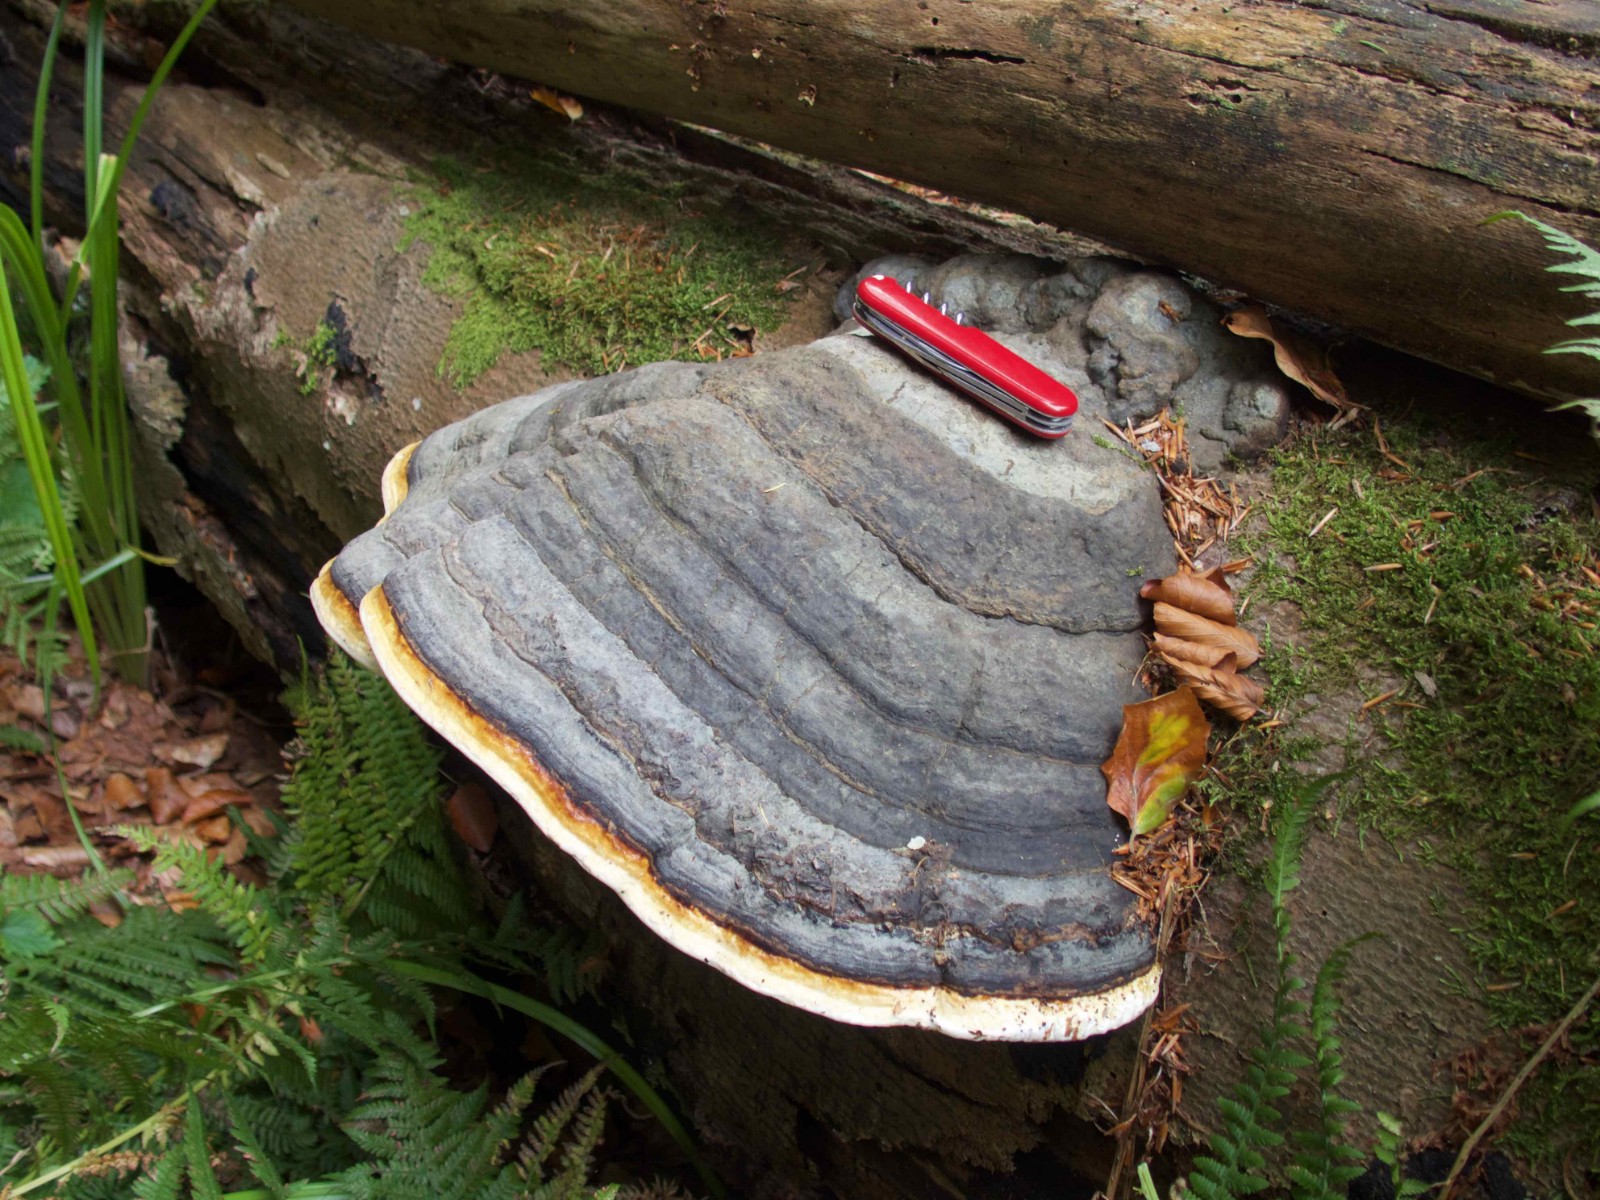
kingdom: Fungi
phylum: Basidiomycota
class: Agaricomycetes
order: Polyporales
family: Fomitopsidaceae
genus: Fomitopsis
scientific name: Fomitopsis pinicola
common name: randbæltet hovporesvamp
